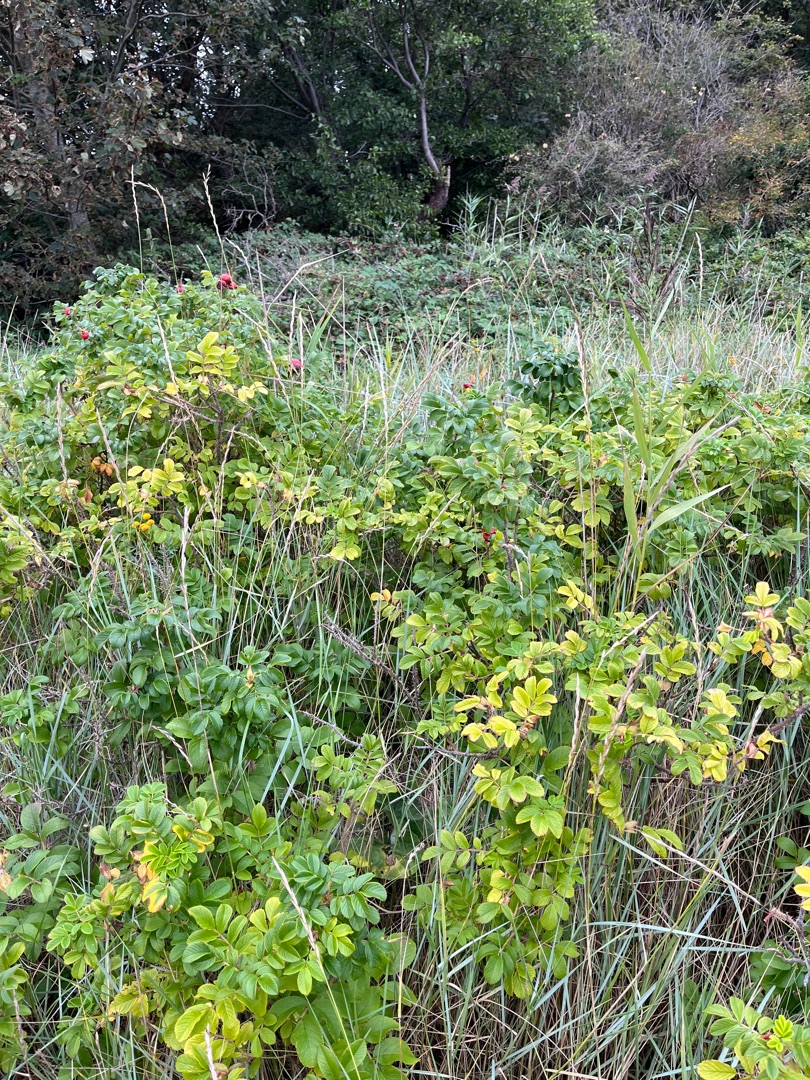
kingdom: Plantae
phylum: Tracheophyta
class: Magnoliopsida
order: Rosales
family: Rosaceae
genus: Rosa
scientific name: Rosa rugosa
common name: Rynket rose
